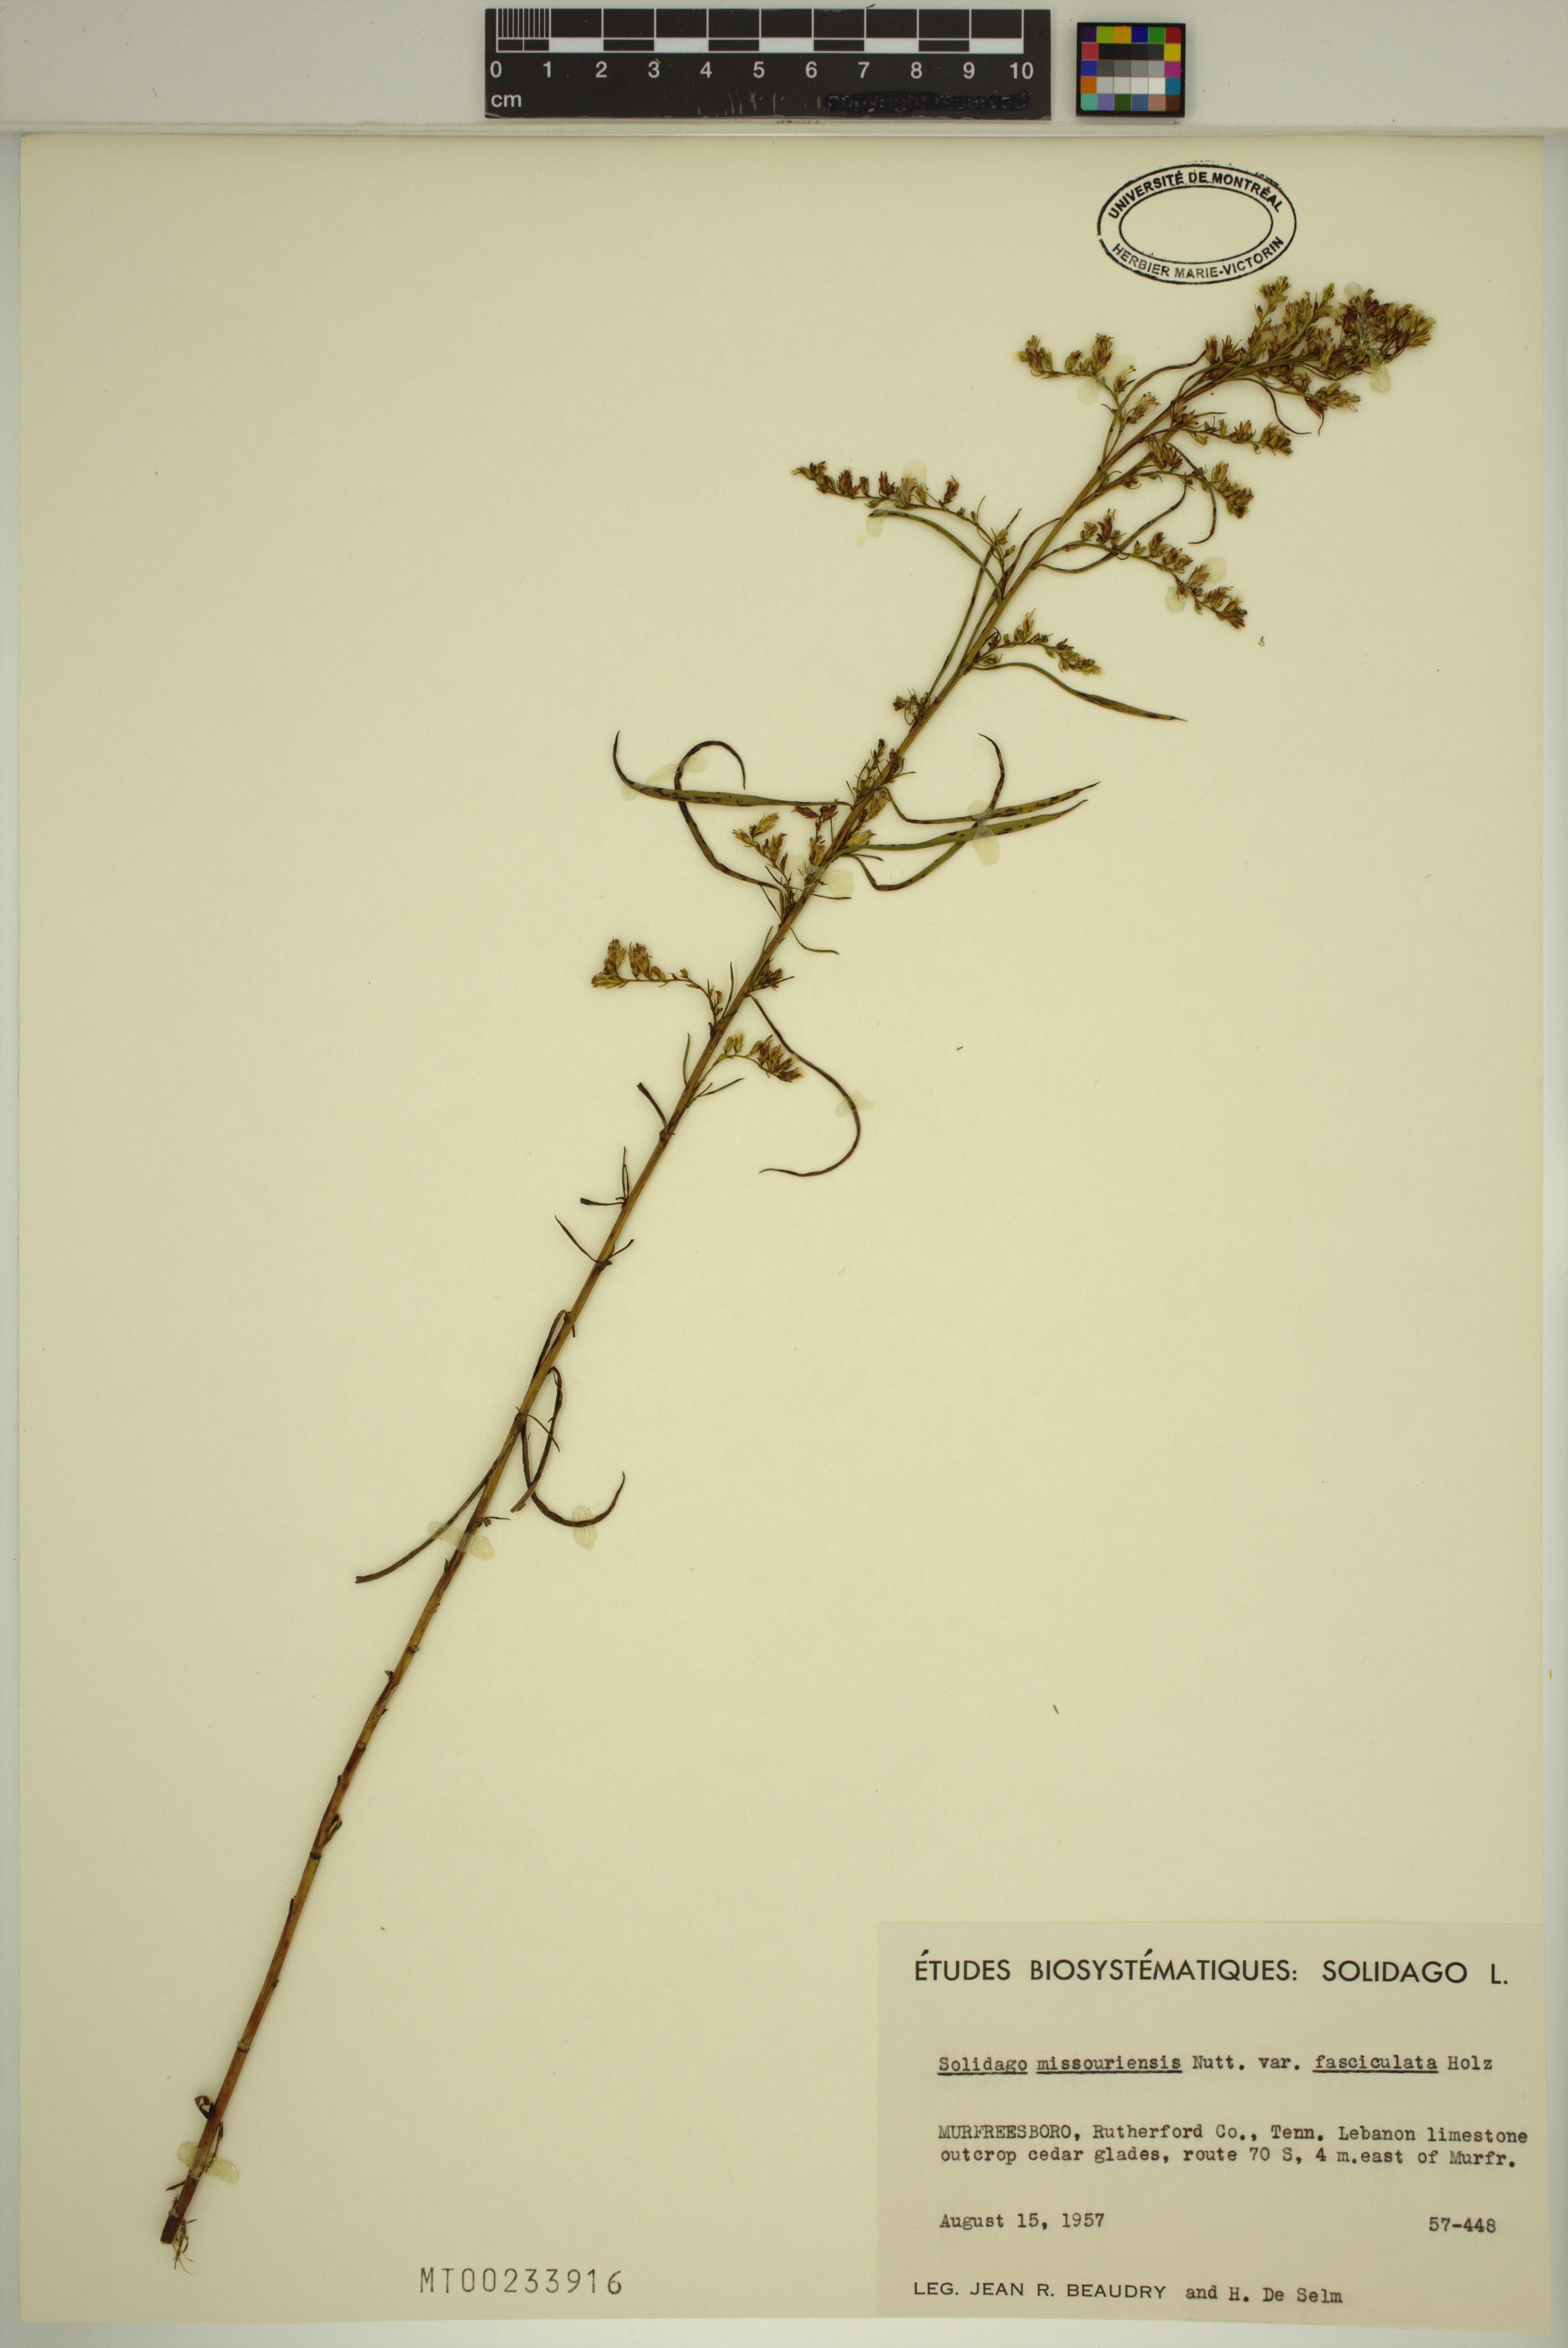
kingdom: Plantae
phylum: Tracheophyta
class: Magnoliopsida
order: Asterales
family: Asteraceae
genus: Solidago
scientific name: Solidago missouriensis
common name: Prairie goldenrod
